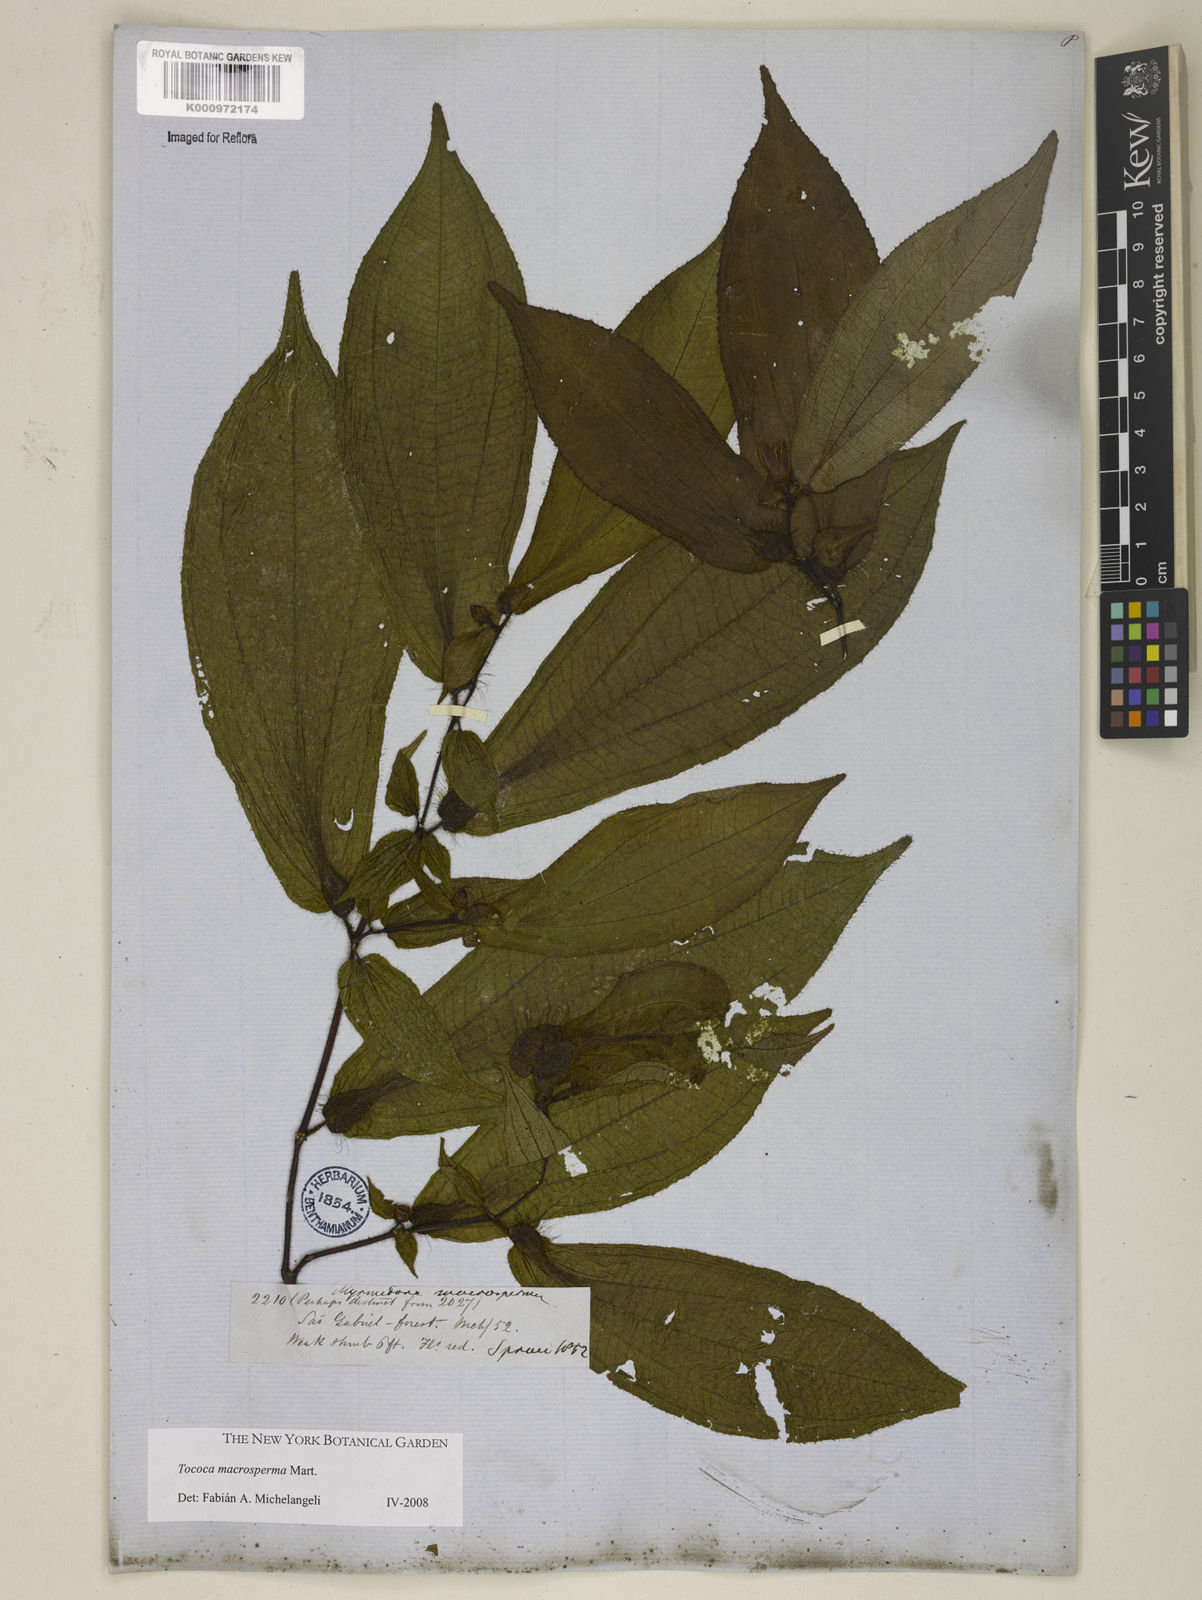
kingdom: Plantae
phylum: Tracheophyta
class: Magnoliopsida
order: Myrtales
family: Melastomataceae
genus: Miconia
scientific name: Miconia macrosperma
